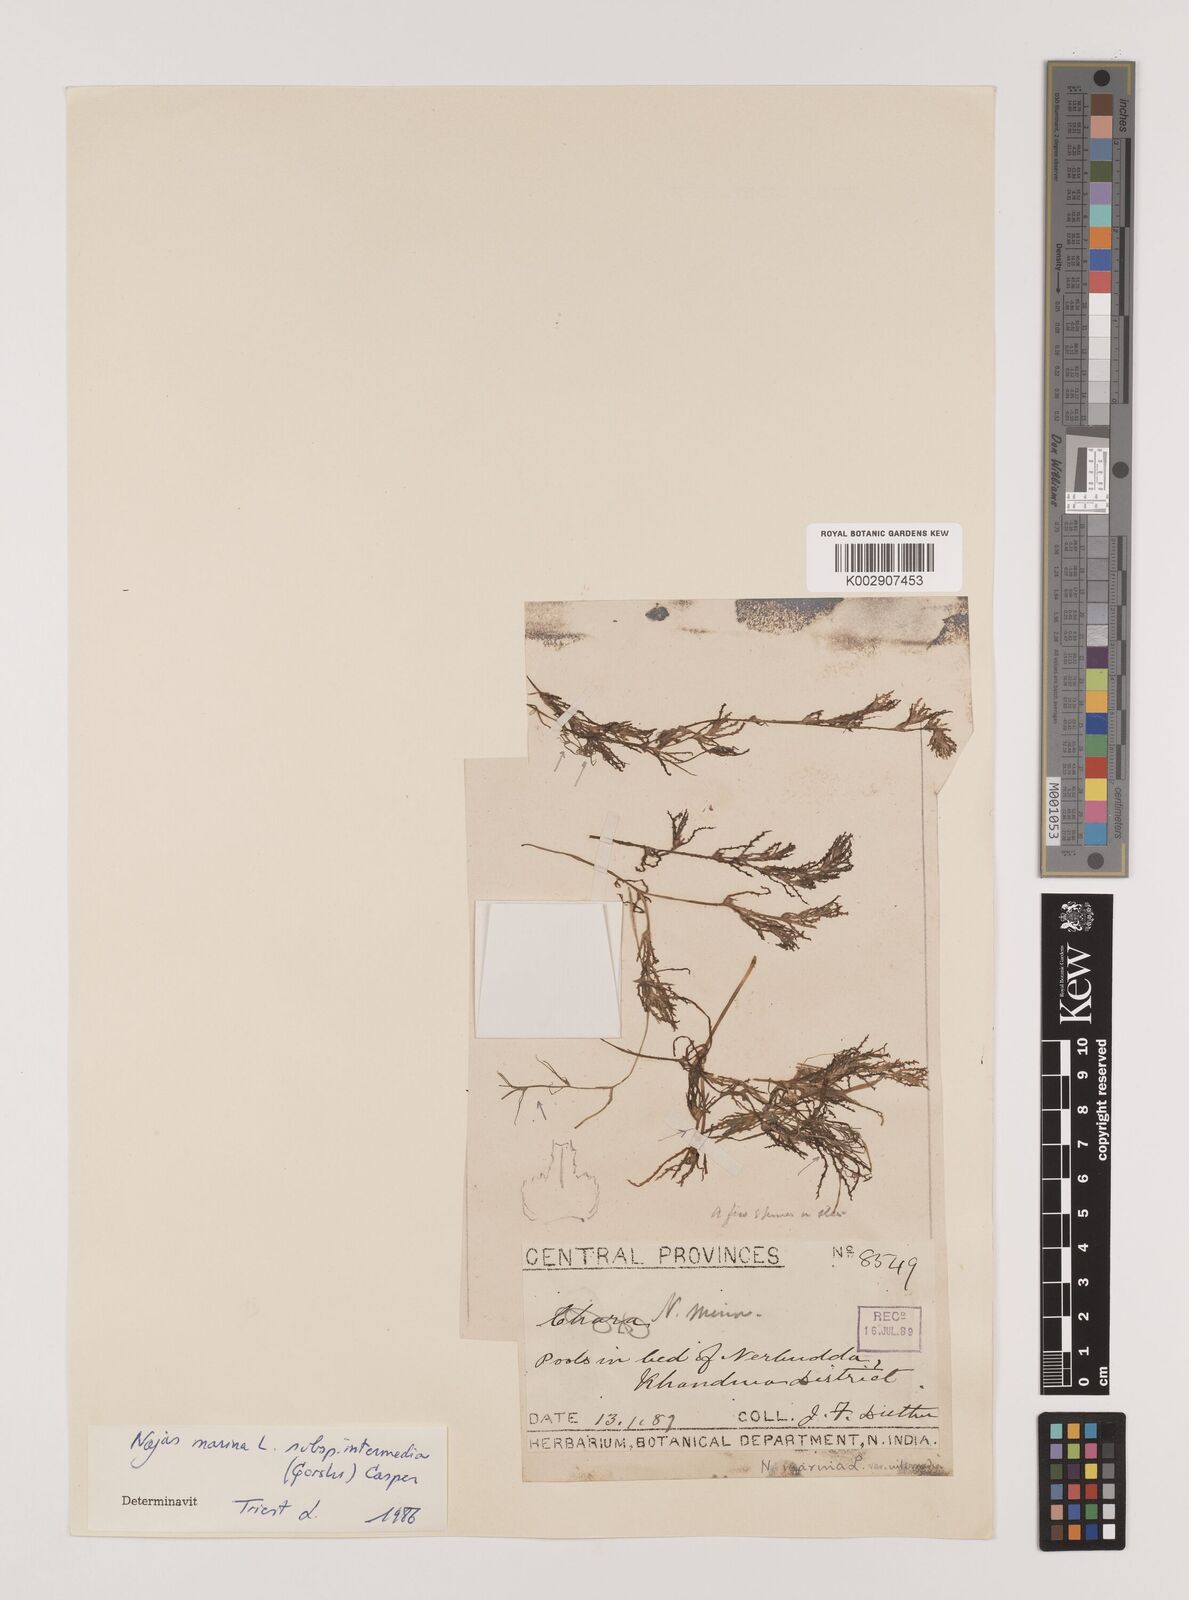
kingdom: Plantae
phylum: Tracheophyta
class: Liliopsida
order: Alismatales
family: Hydrocharitaceae
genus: Najas
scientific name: Najas marina
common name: Holly-leaved naiad
